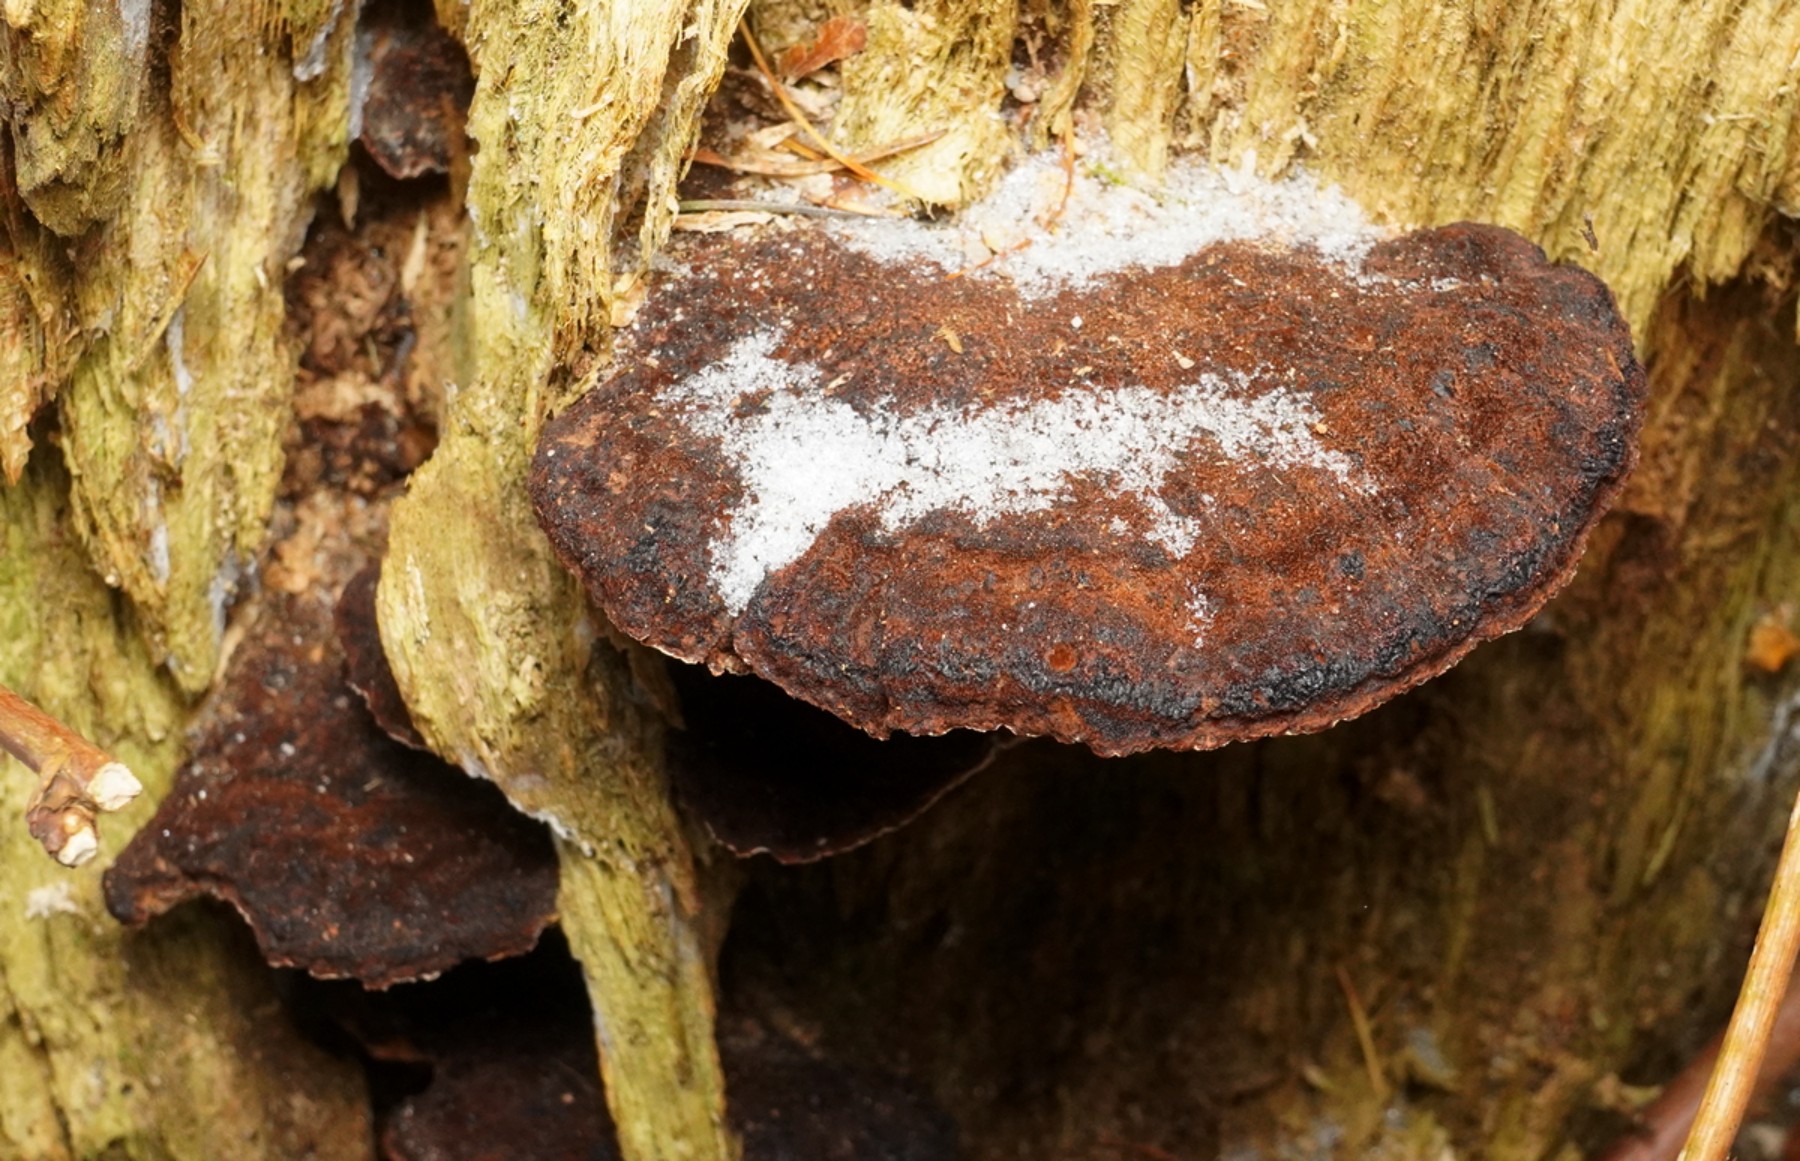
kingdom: Fungi
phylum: Basidiomycota
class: Agaricomycetes
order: Polyporales
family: Ischnodermataceae
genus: Ischnoderma
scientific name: Ischnoderma benzoinum
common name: gran-tjæreporesvamp
